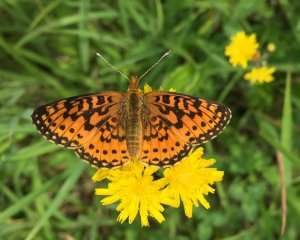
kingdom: Animalia
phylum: Arthropoda
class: Insecta
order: Lepidoptera
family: Nymphalidae
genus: Clossiana
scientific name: Clossiana toddi
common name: Meadow Fritillary
